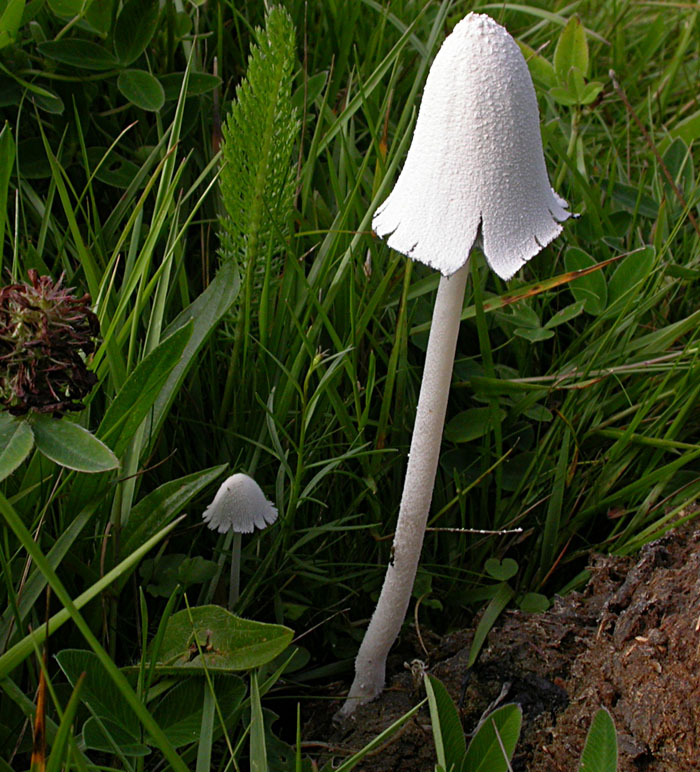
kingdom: Fungi
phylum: Basidiomycota
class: Agaricomycetes
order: Agaricales
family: Psathyrellaceae
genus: Coprinopsis
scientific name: Coprinopsis nivea
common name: snehvid blækhat
